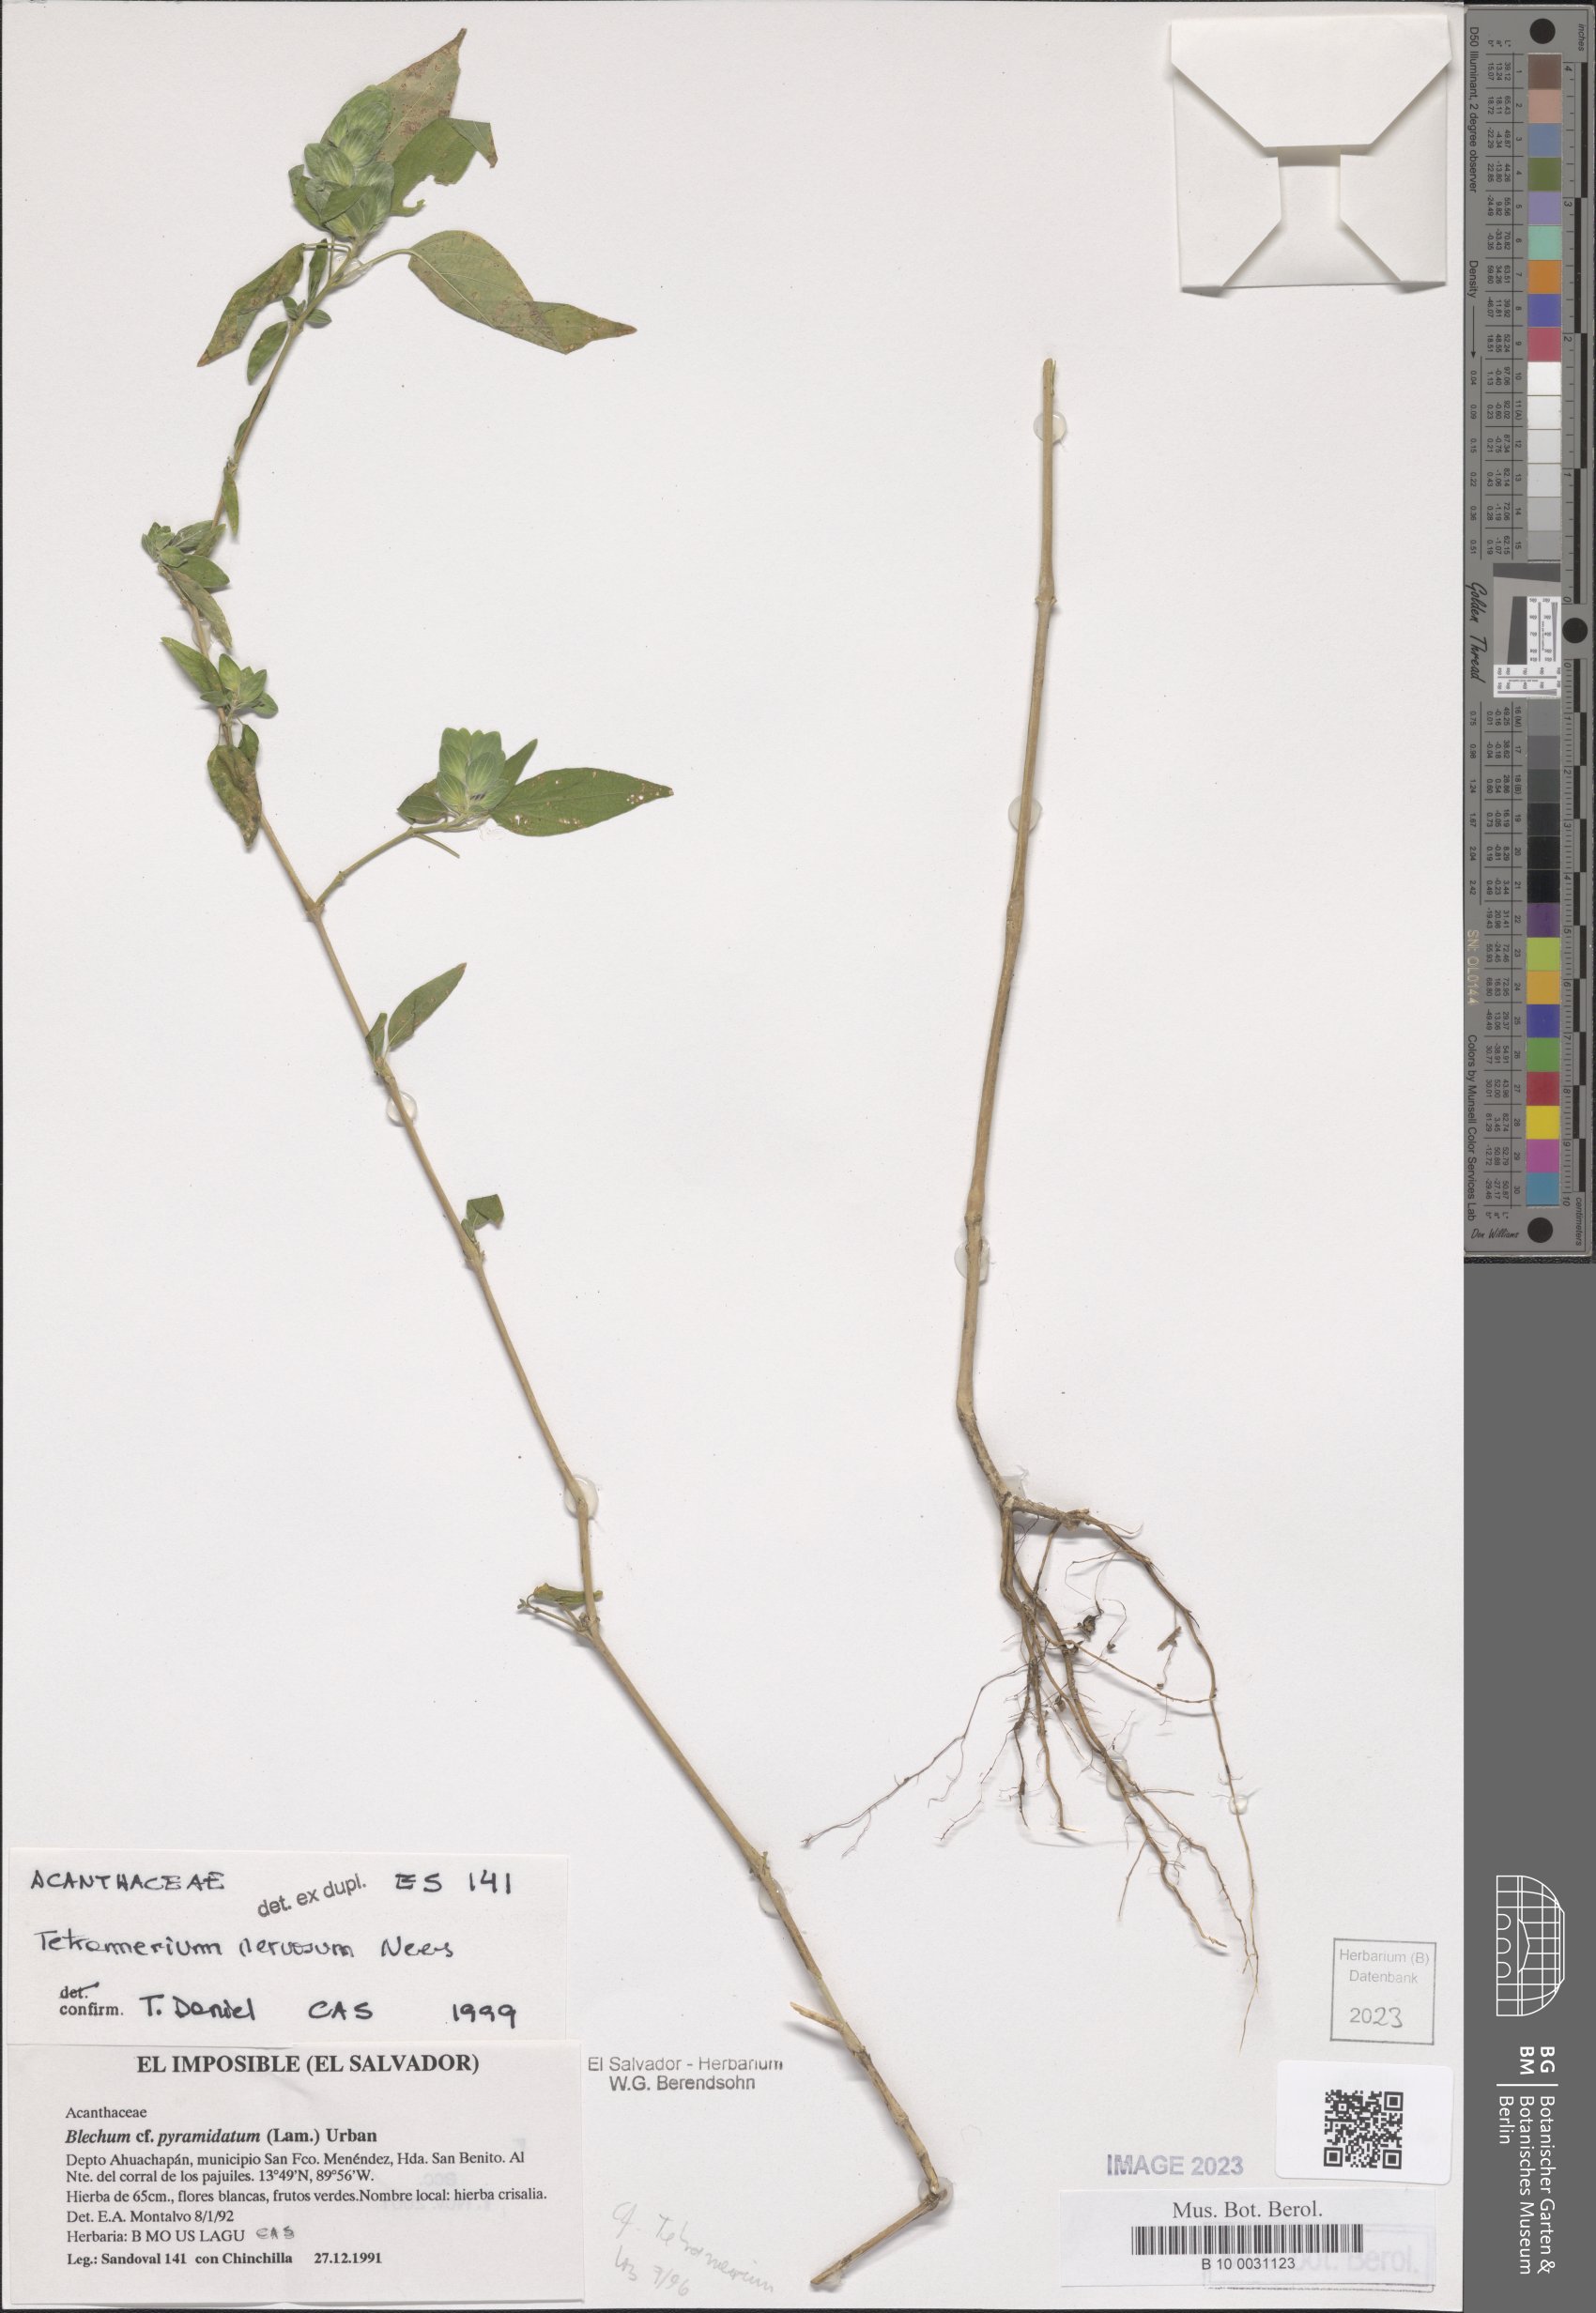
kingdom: Plantae
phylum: Tracheophyta
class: Magnoliopsida
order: Lamiales
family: Acanthaceae
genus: Tetramerium
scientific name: Tetramerium nervosum
